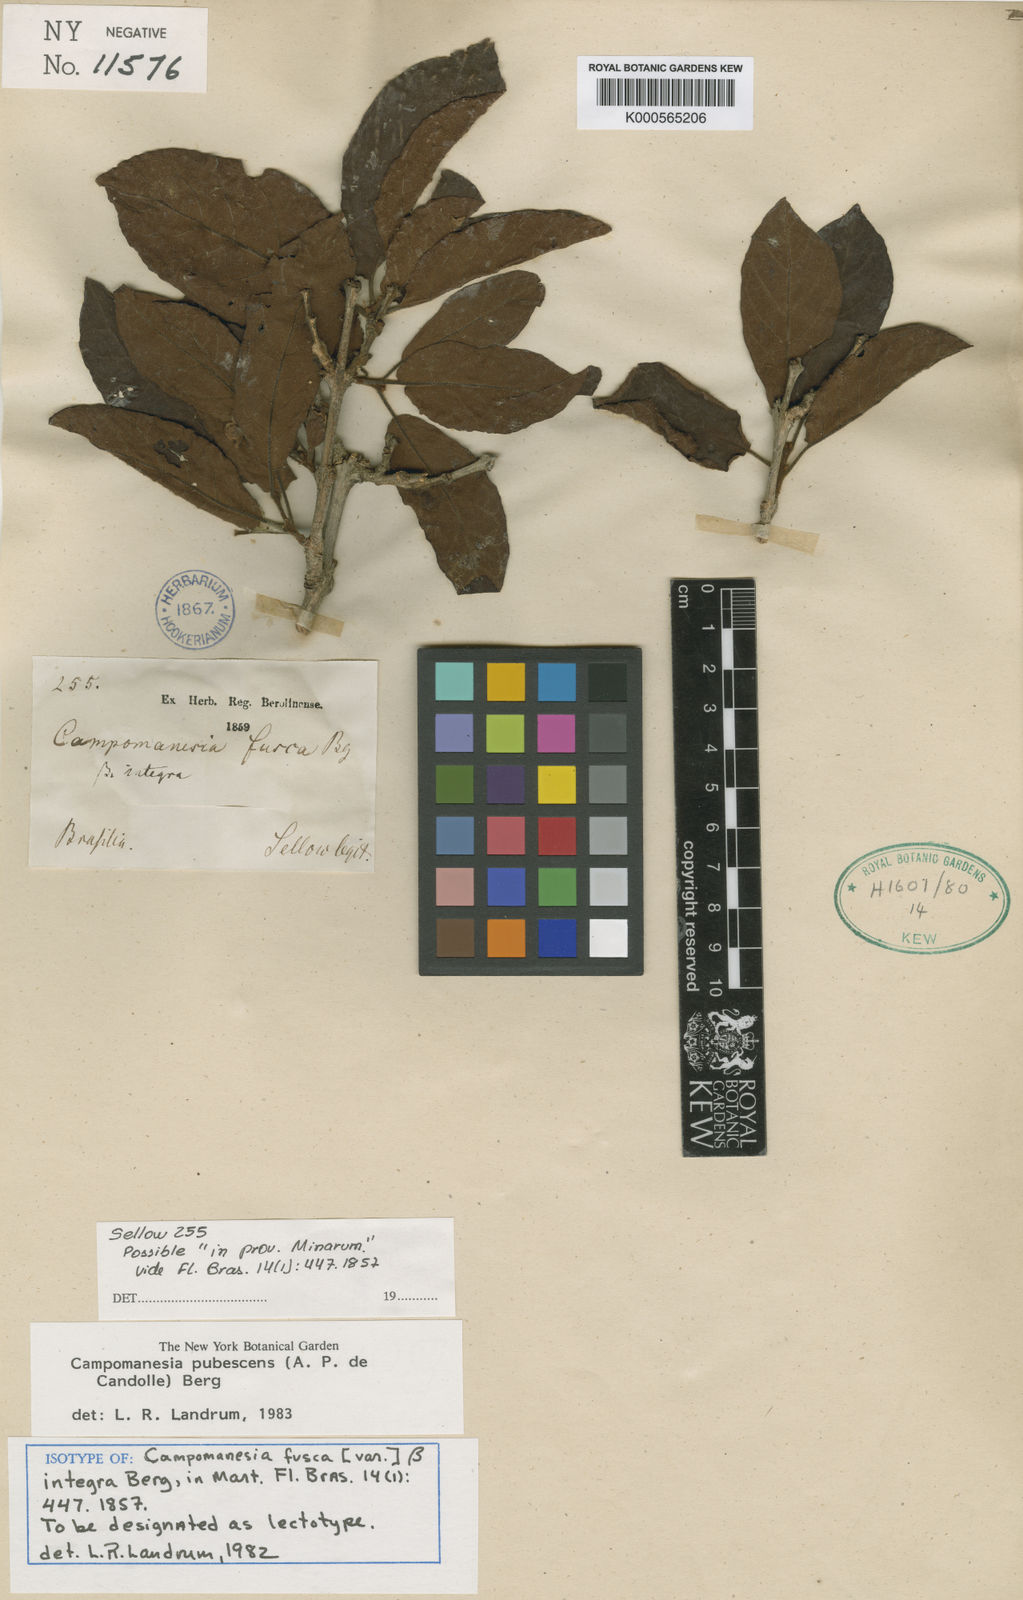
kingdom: Plantae
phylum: Tracheophyta
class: Magnoliopsida
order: Myrtales
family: Myrtaceae
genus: Campomanesia
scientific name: Campomanesia pubescens
